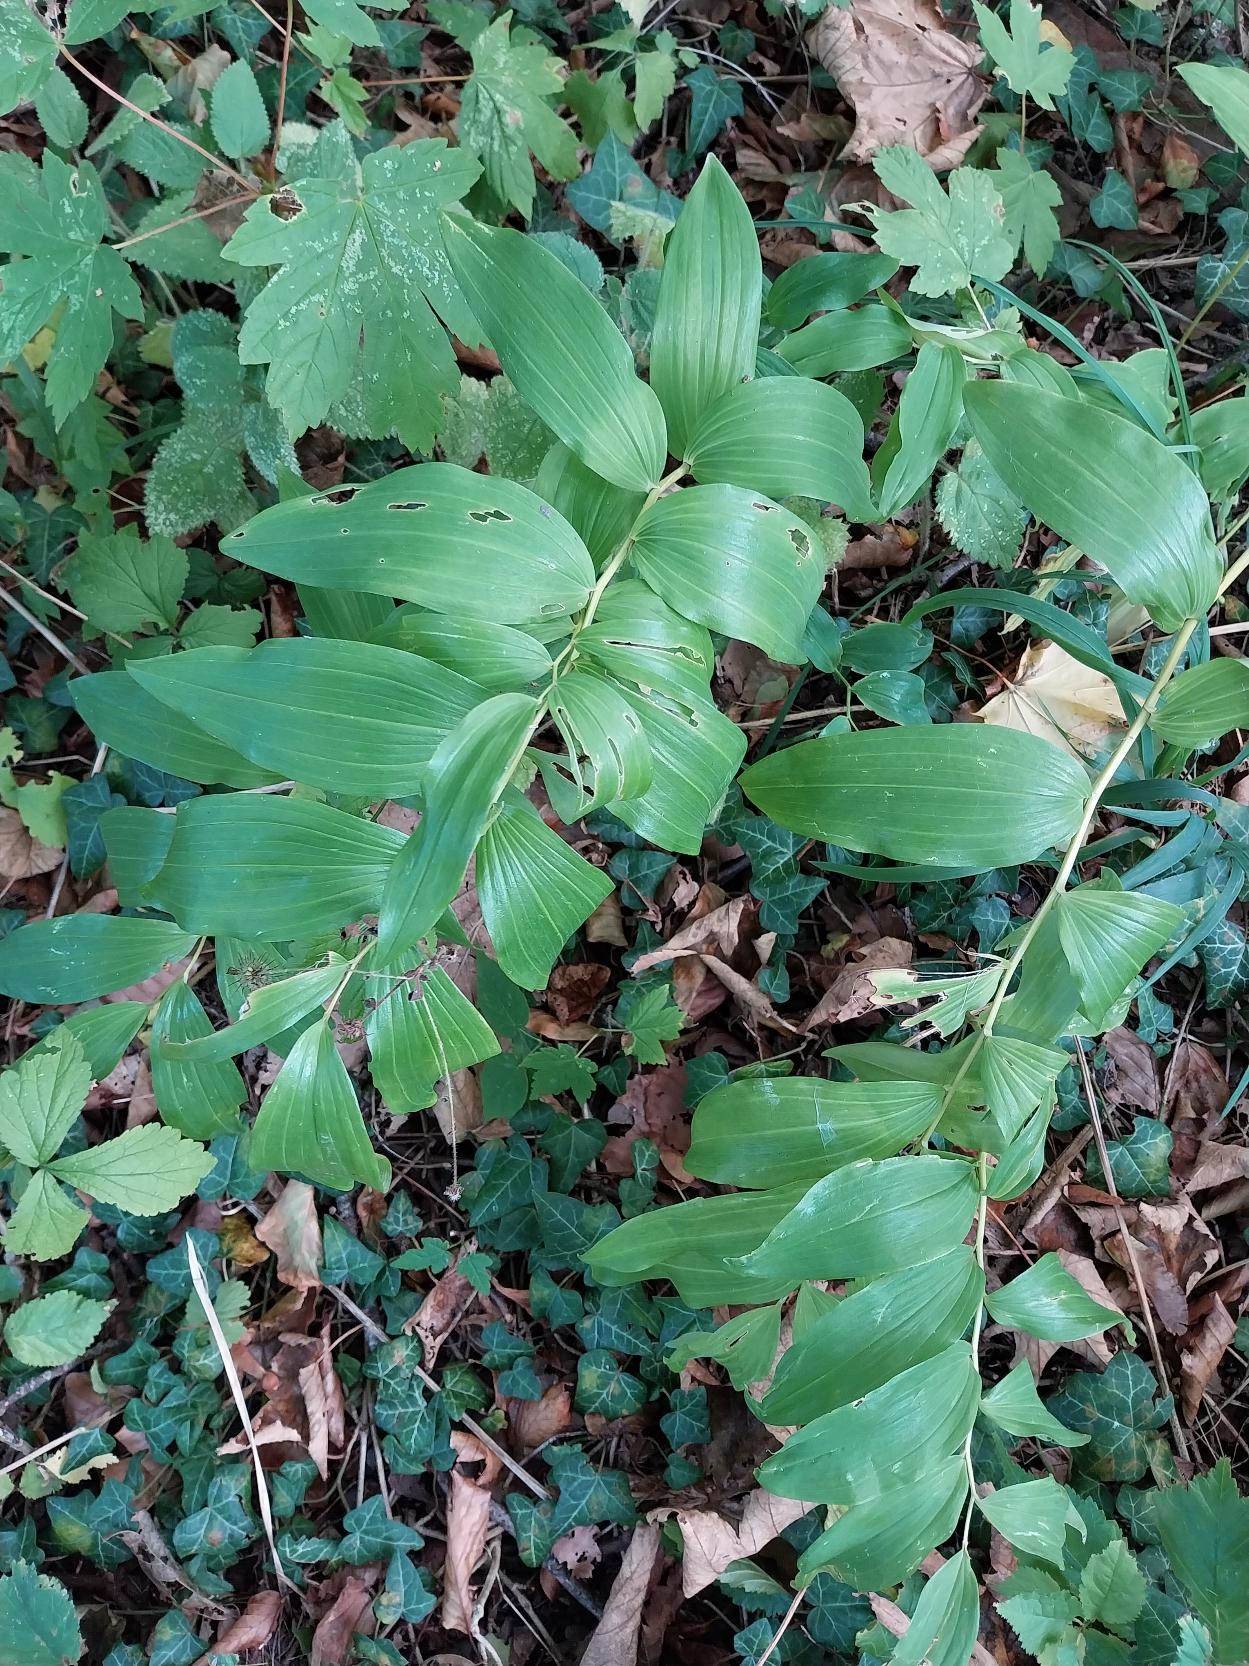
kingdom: Plantae
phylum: Tracheophyta
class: Liliopsida
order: Asparagales
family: Asparagaceae
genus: Polygonatum
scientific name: Polygonatum multiflorum
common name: Stor konval
